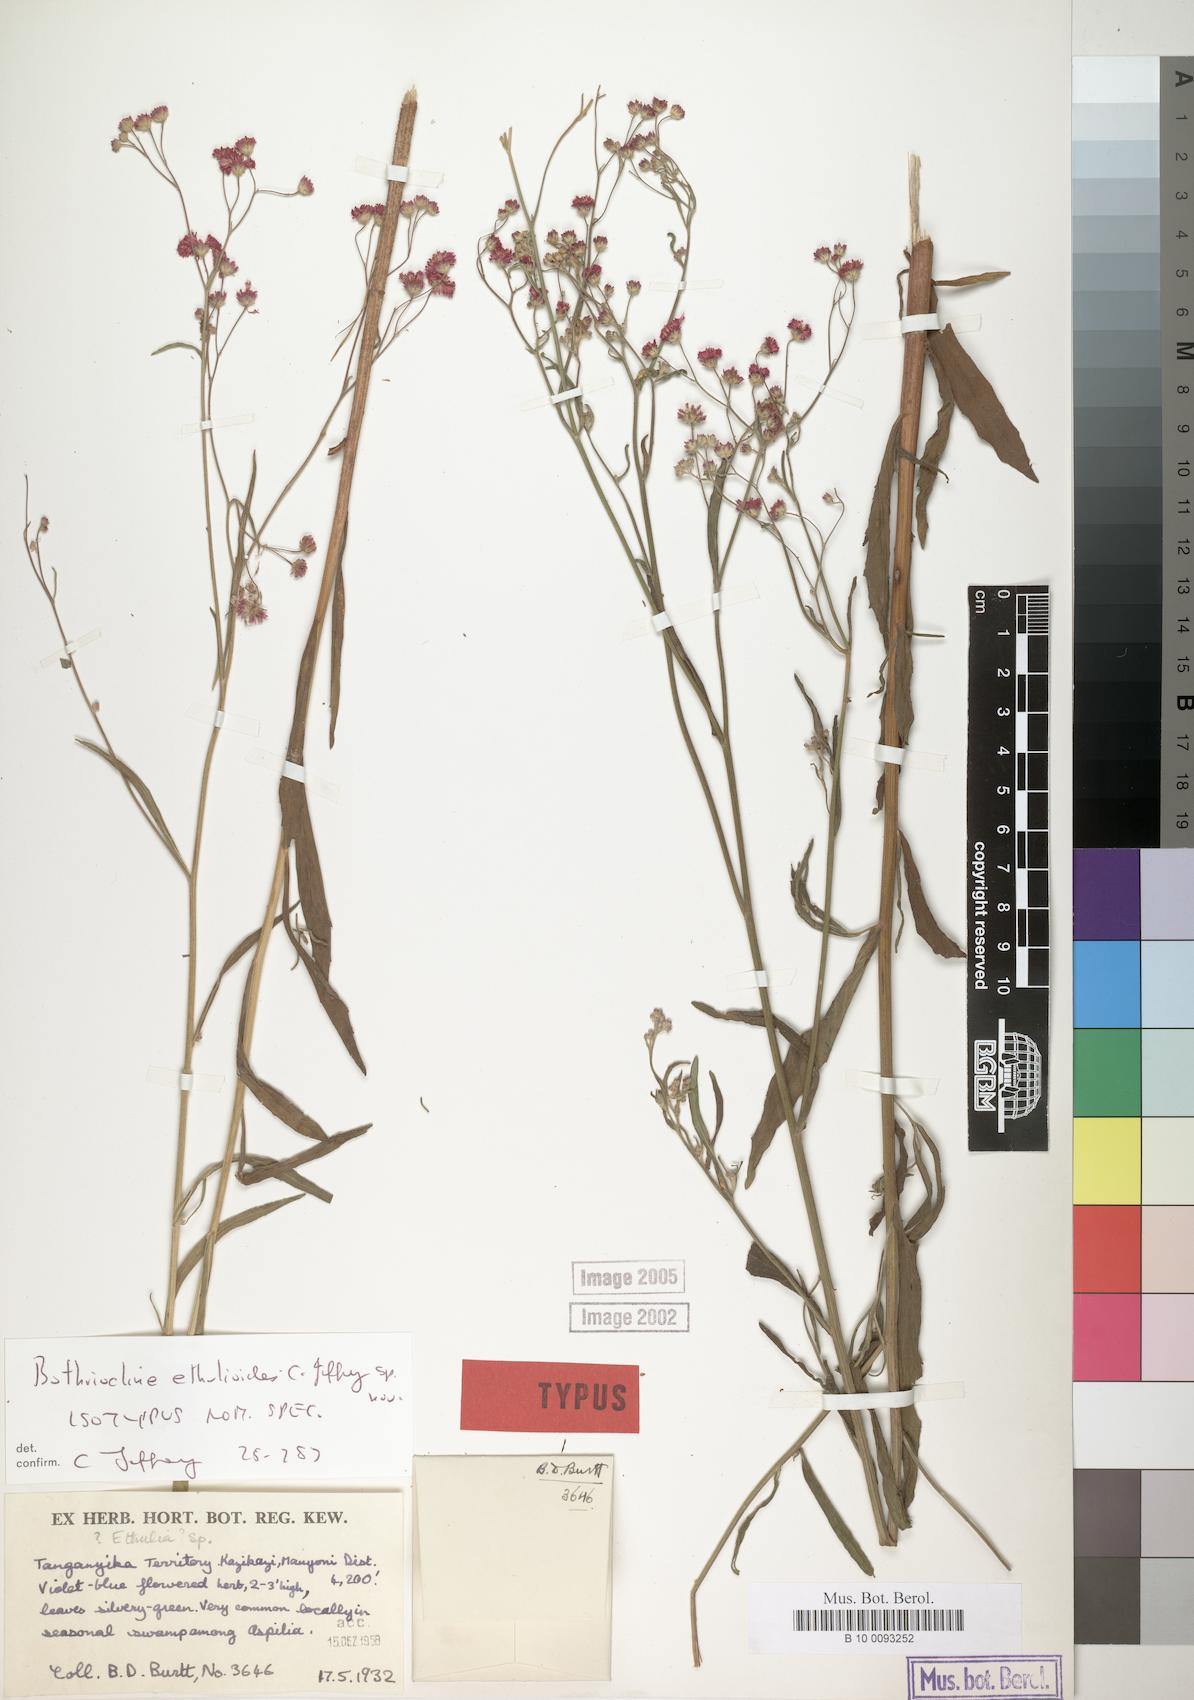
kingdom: Plantae
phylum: Tracheophyta
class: Magnoliopsida
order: Asterales
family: Asteraceae
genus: Bothriocline
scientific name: Bothriocline ethulioides
